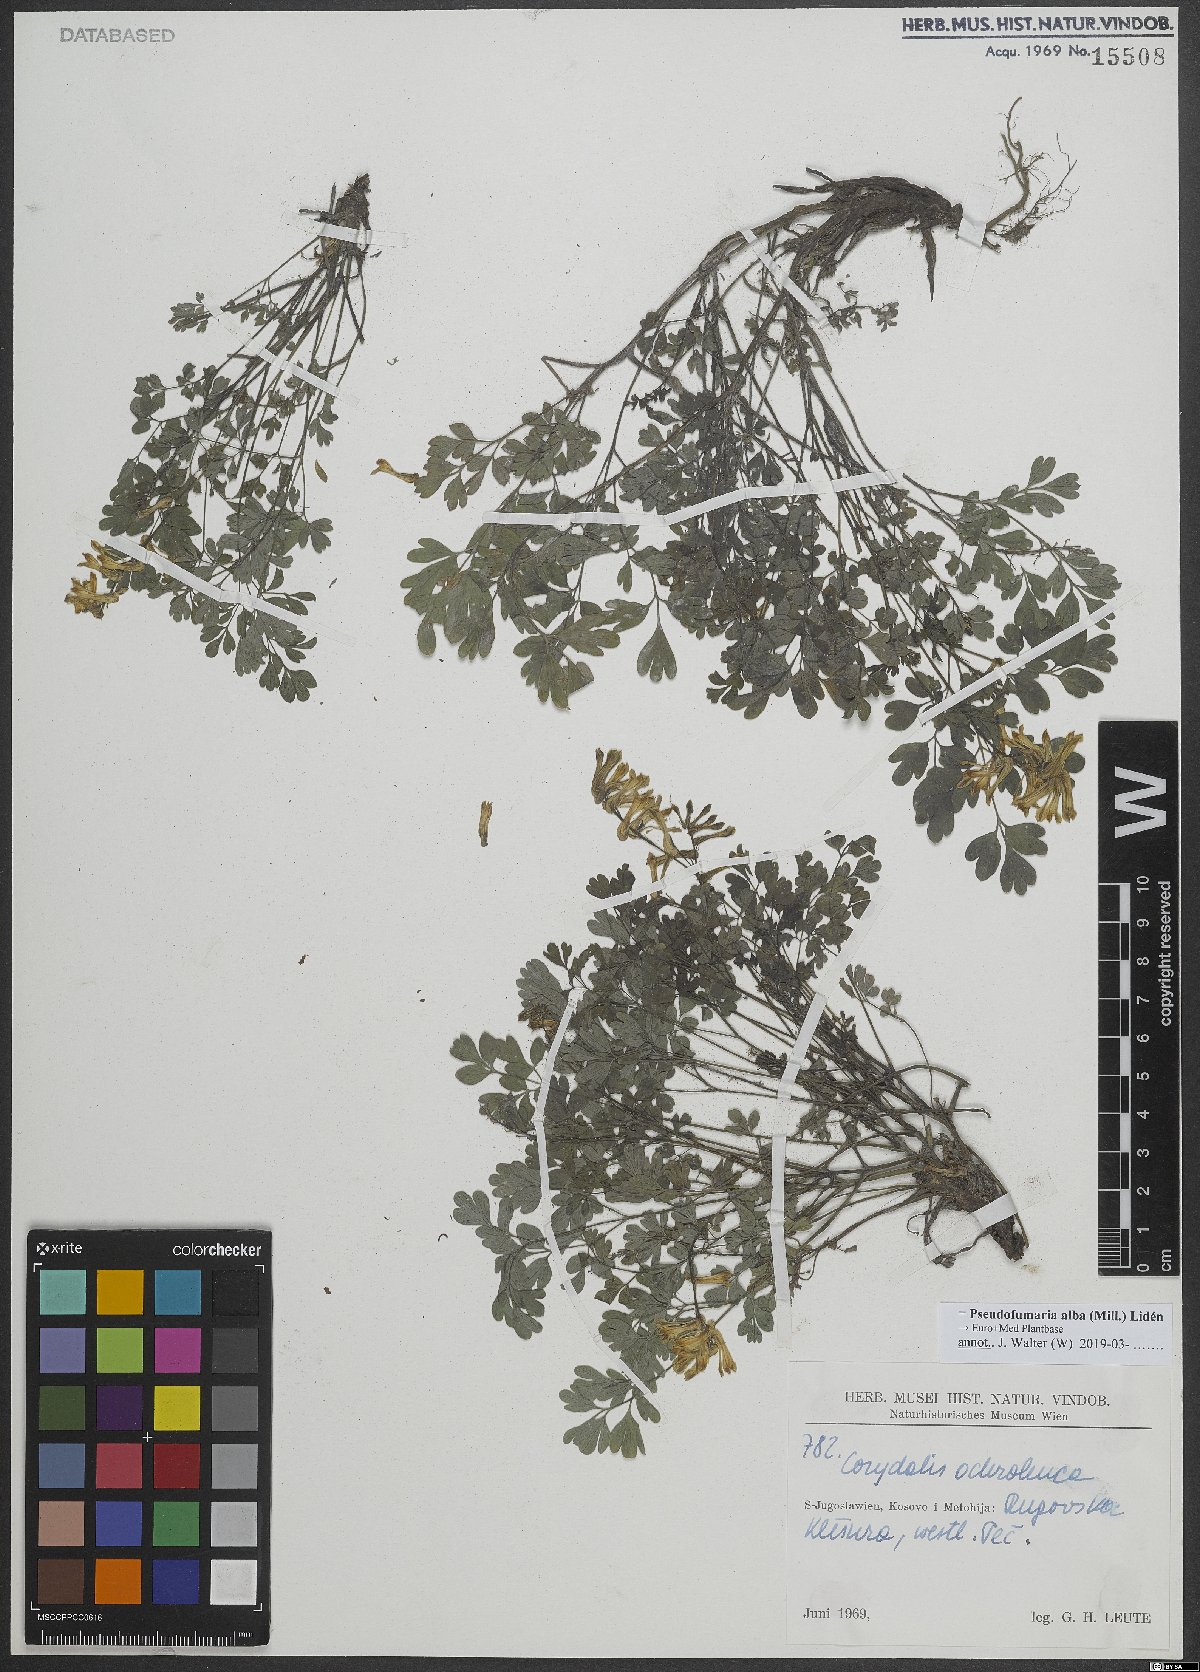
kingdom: Plantae
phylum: Tracheophyta
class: Magnoliopsida
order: Ranunculales
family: Papaveraceae
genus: Pseudofumaria
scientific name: Pseudofumaria alba
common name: Pale corydalis
